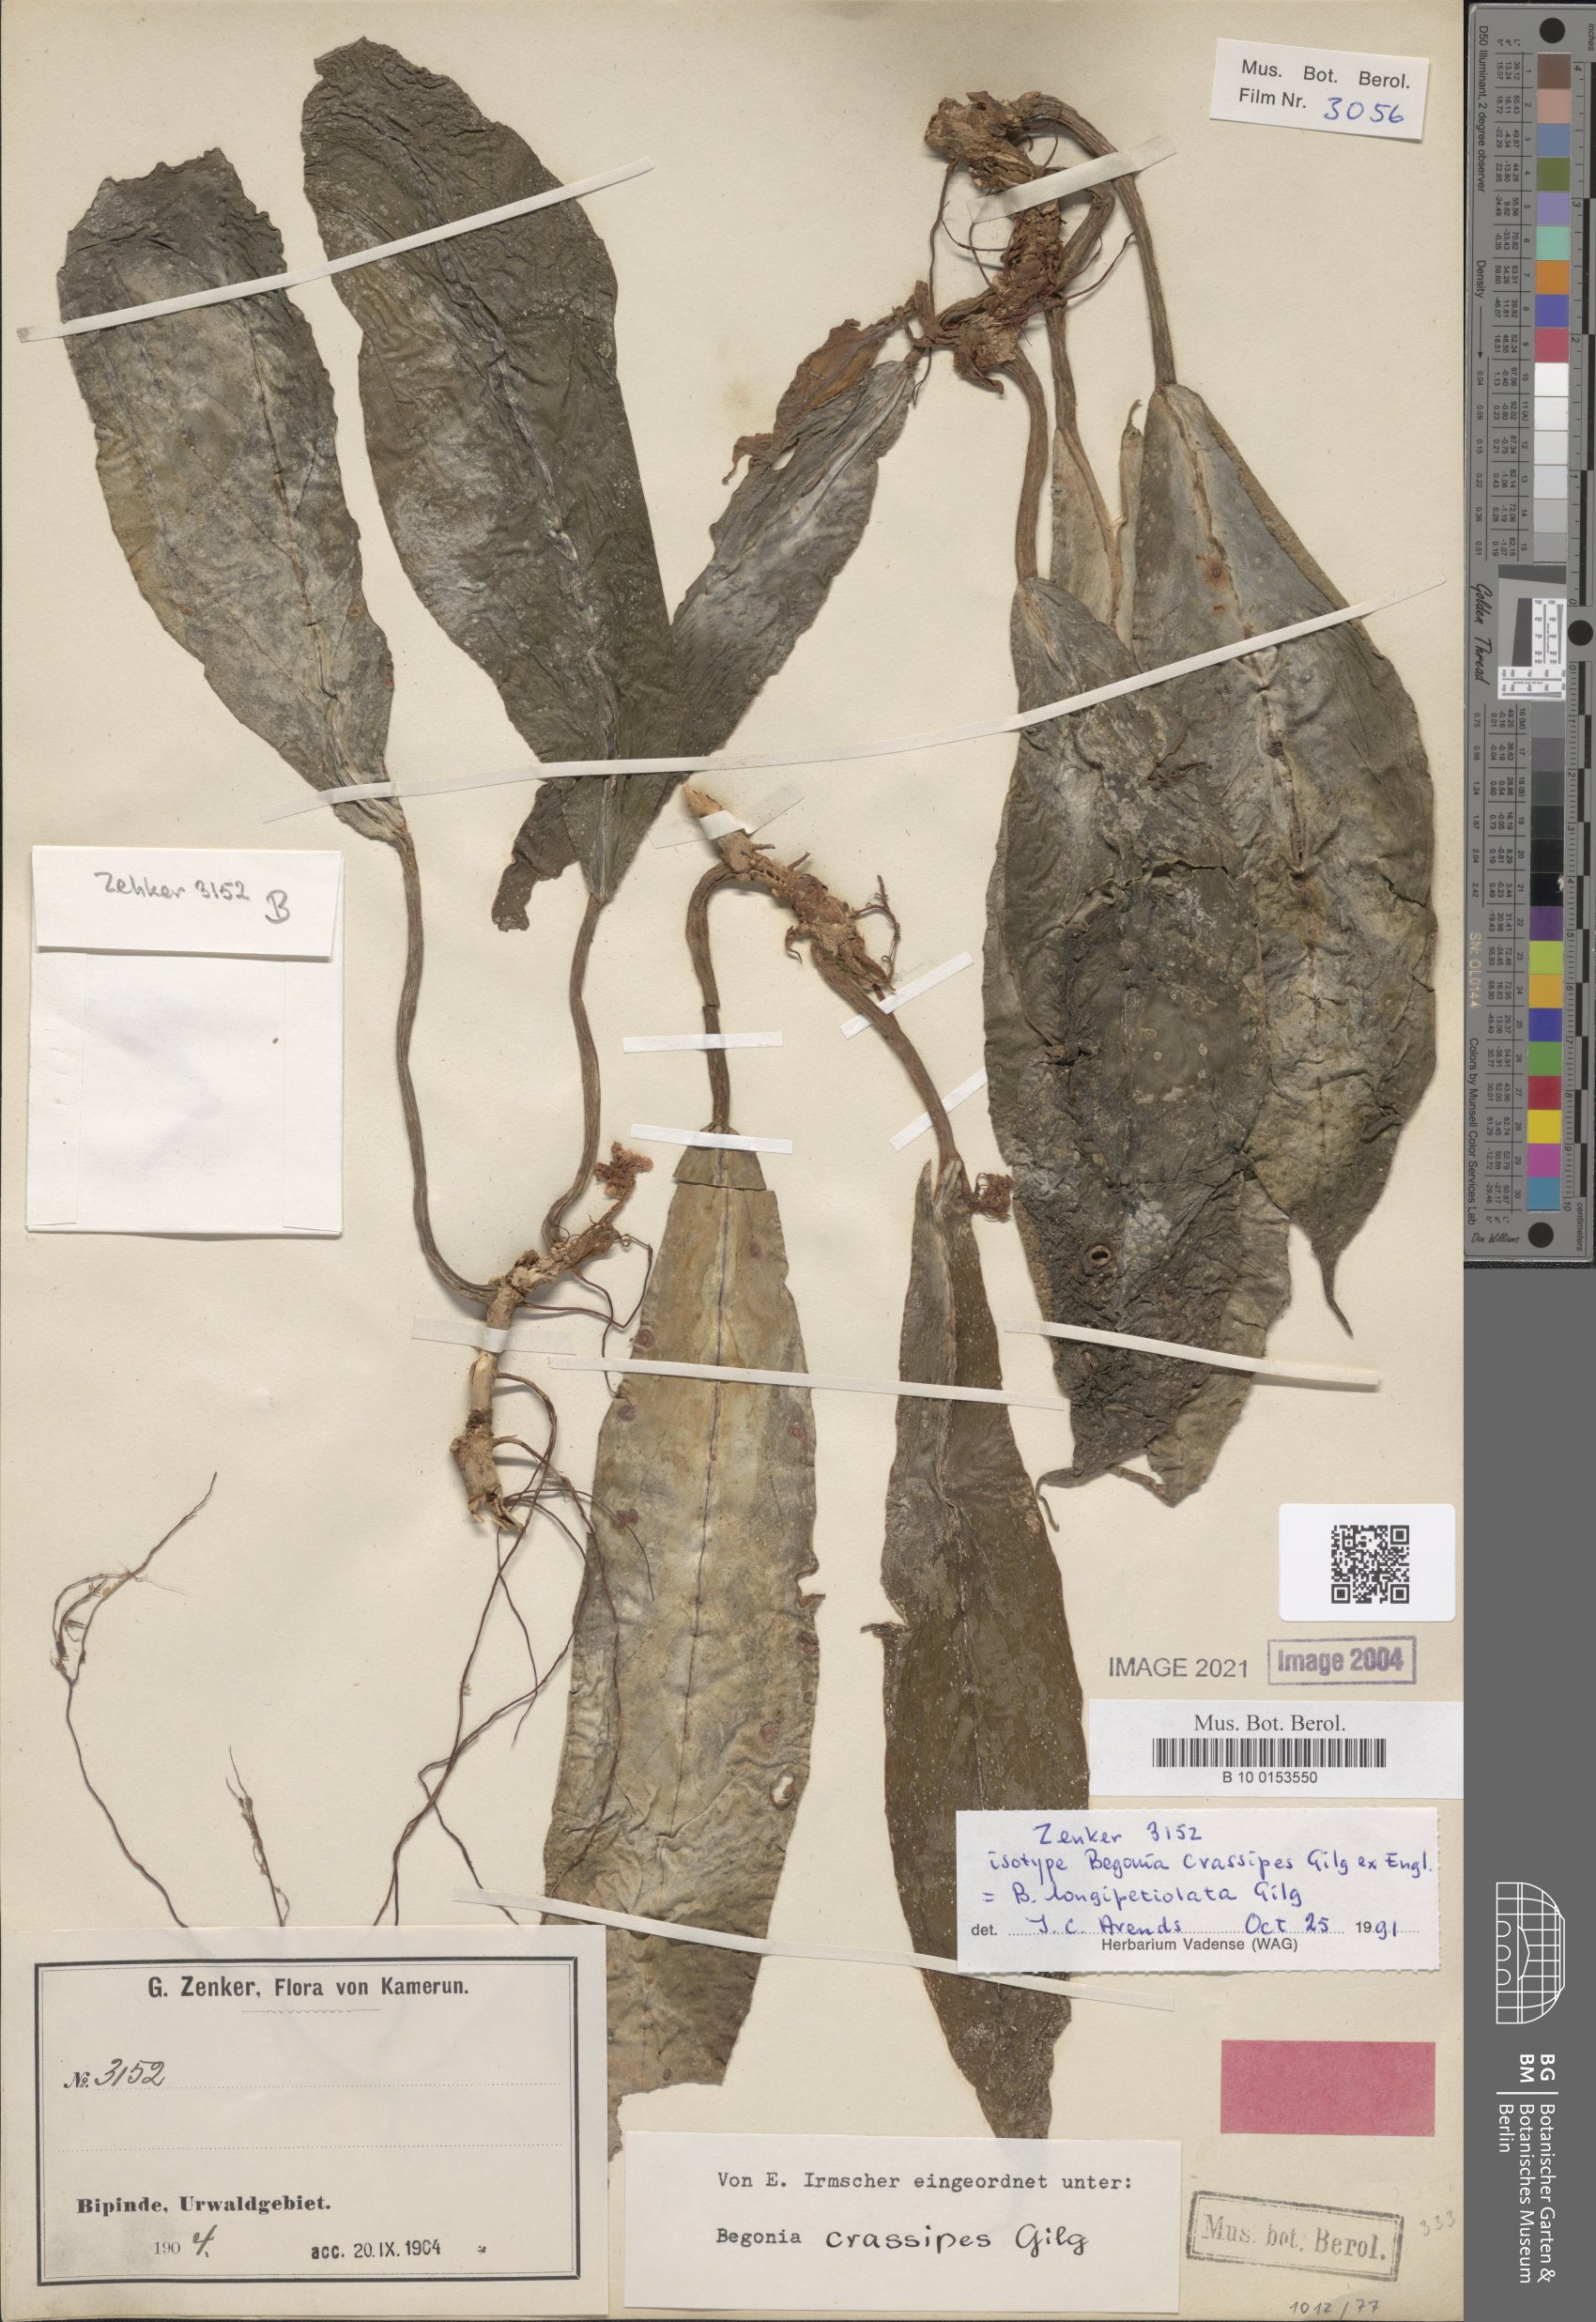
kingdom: Plantae
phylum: Tracheophyta
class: Magnoliopsida
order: Cucurbitales
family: Begoniaceae
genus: Begonia
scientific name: Begonia longipetiolata
